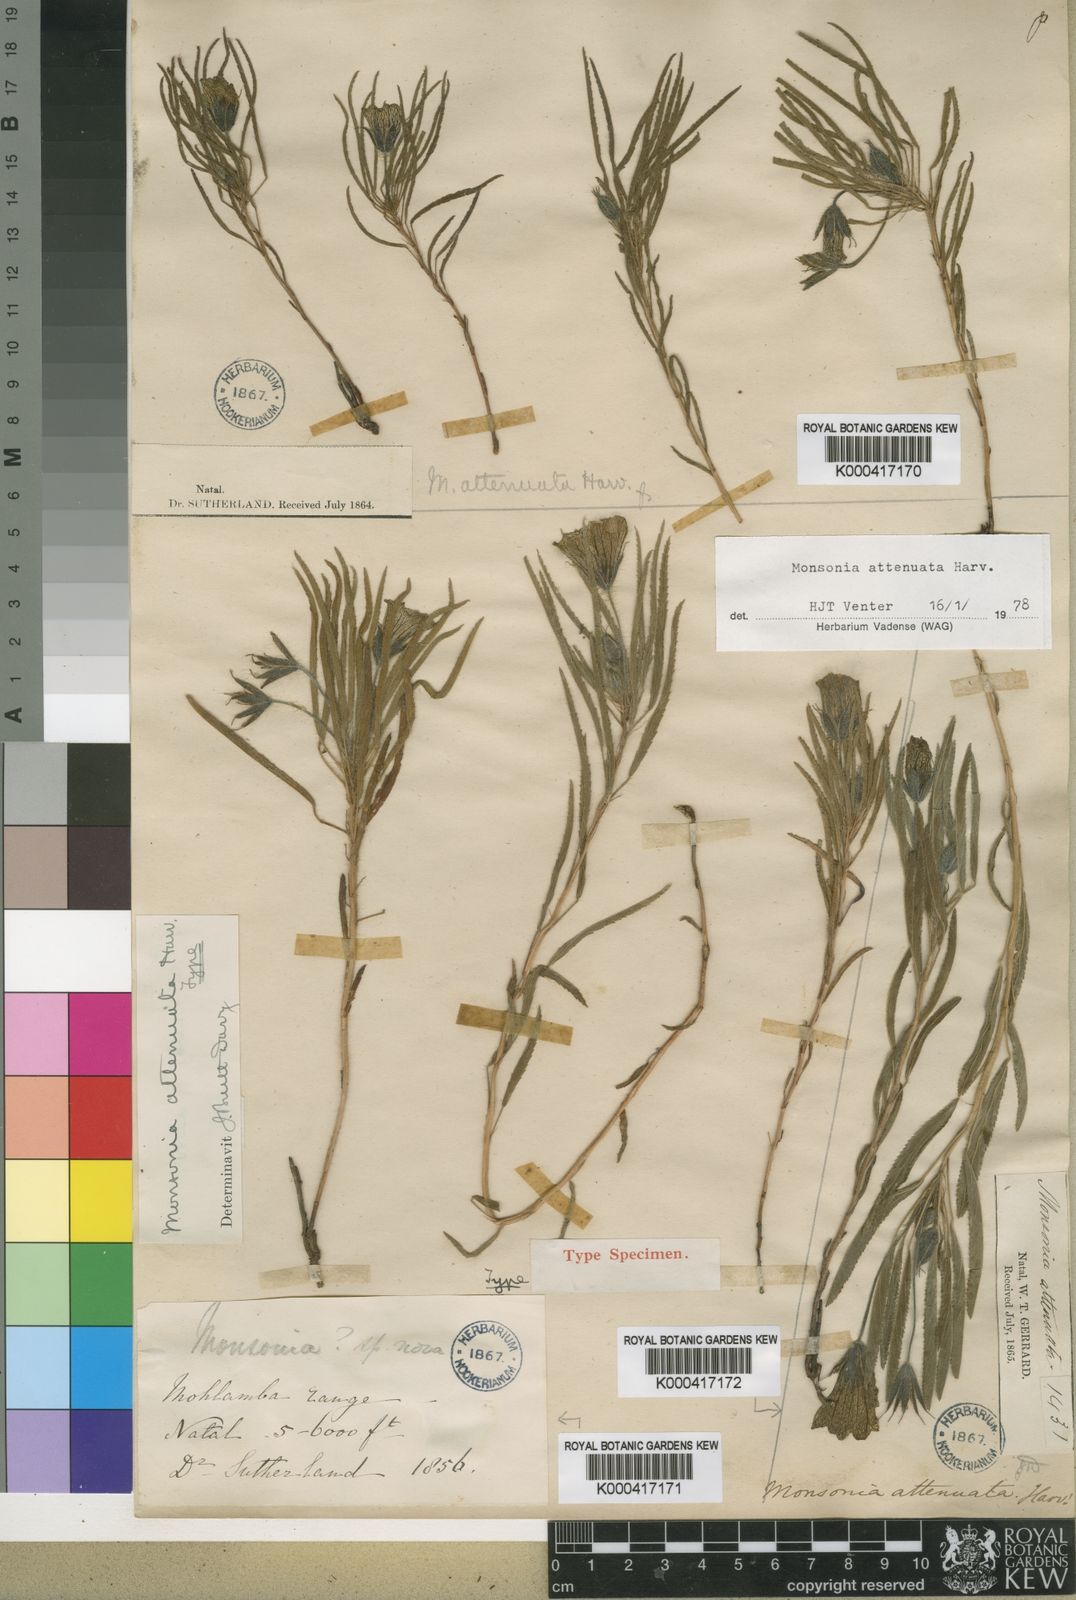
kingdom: Plantae
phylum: Tracheophyta
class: Magnoliopsida
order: Geraniales
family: Geraniaceae
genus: Monsonia
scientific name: Monsonia attenuata
